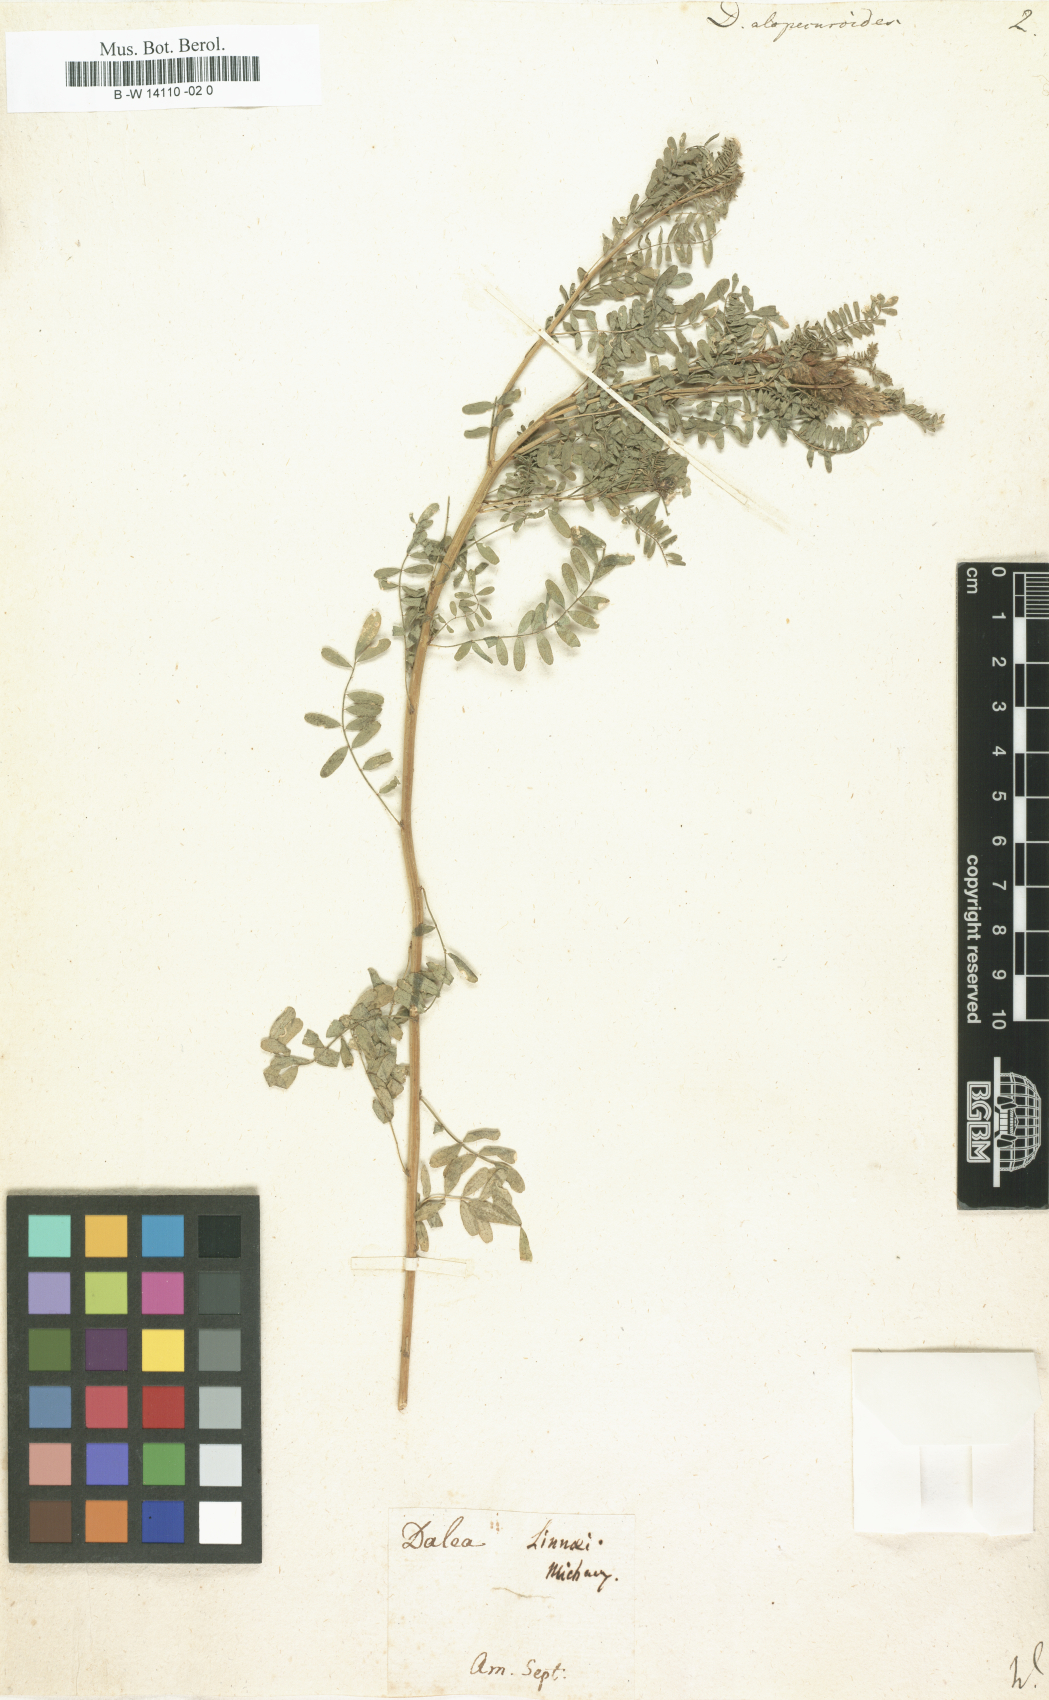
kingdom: Plantae
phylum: Tracheophyta
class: Magnoliopsida
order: Fabales
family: Fabaceae
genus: Dalea
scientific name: Dalea leporina
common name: Foxtail dalea
